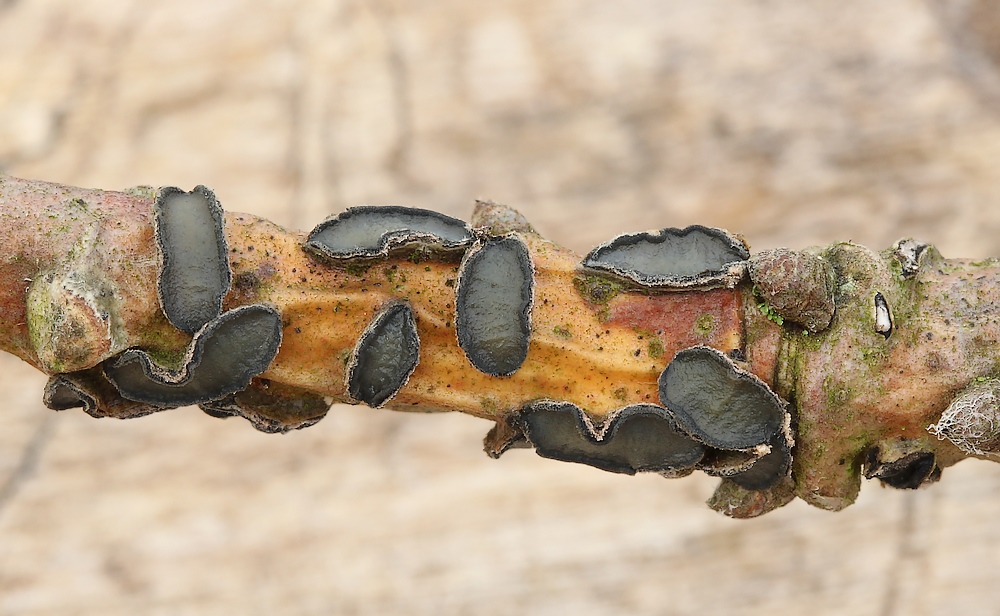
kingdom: Fungi
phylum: Ascomycota
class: Leotiomycetes
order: Rhytismatales
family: Rhytismataceae
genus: Colpoma
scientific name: Colpoma quercinum
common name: ege-sprækkeskive
